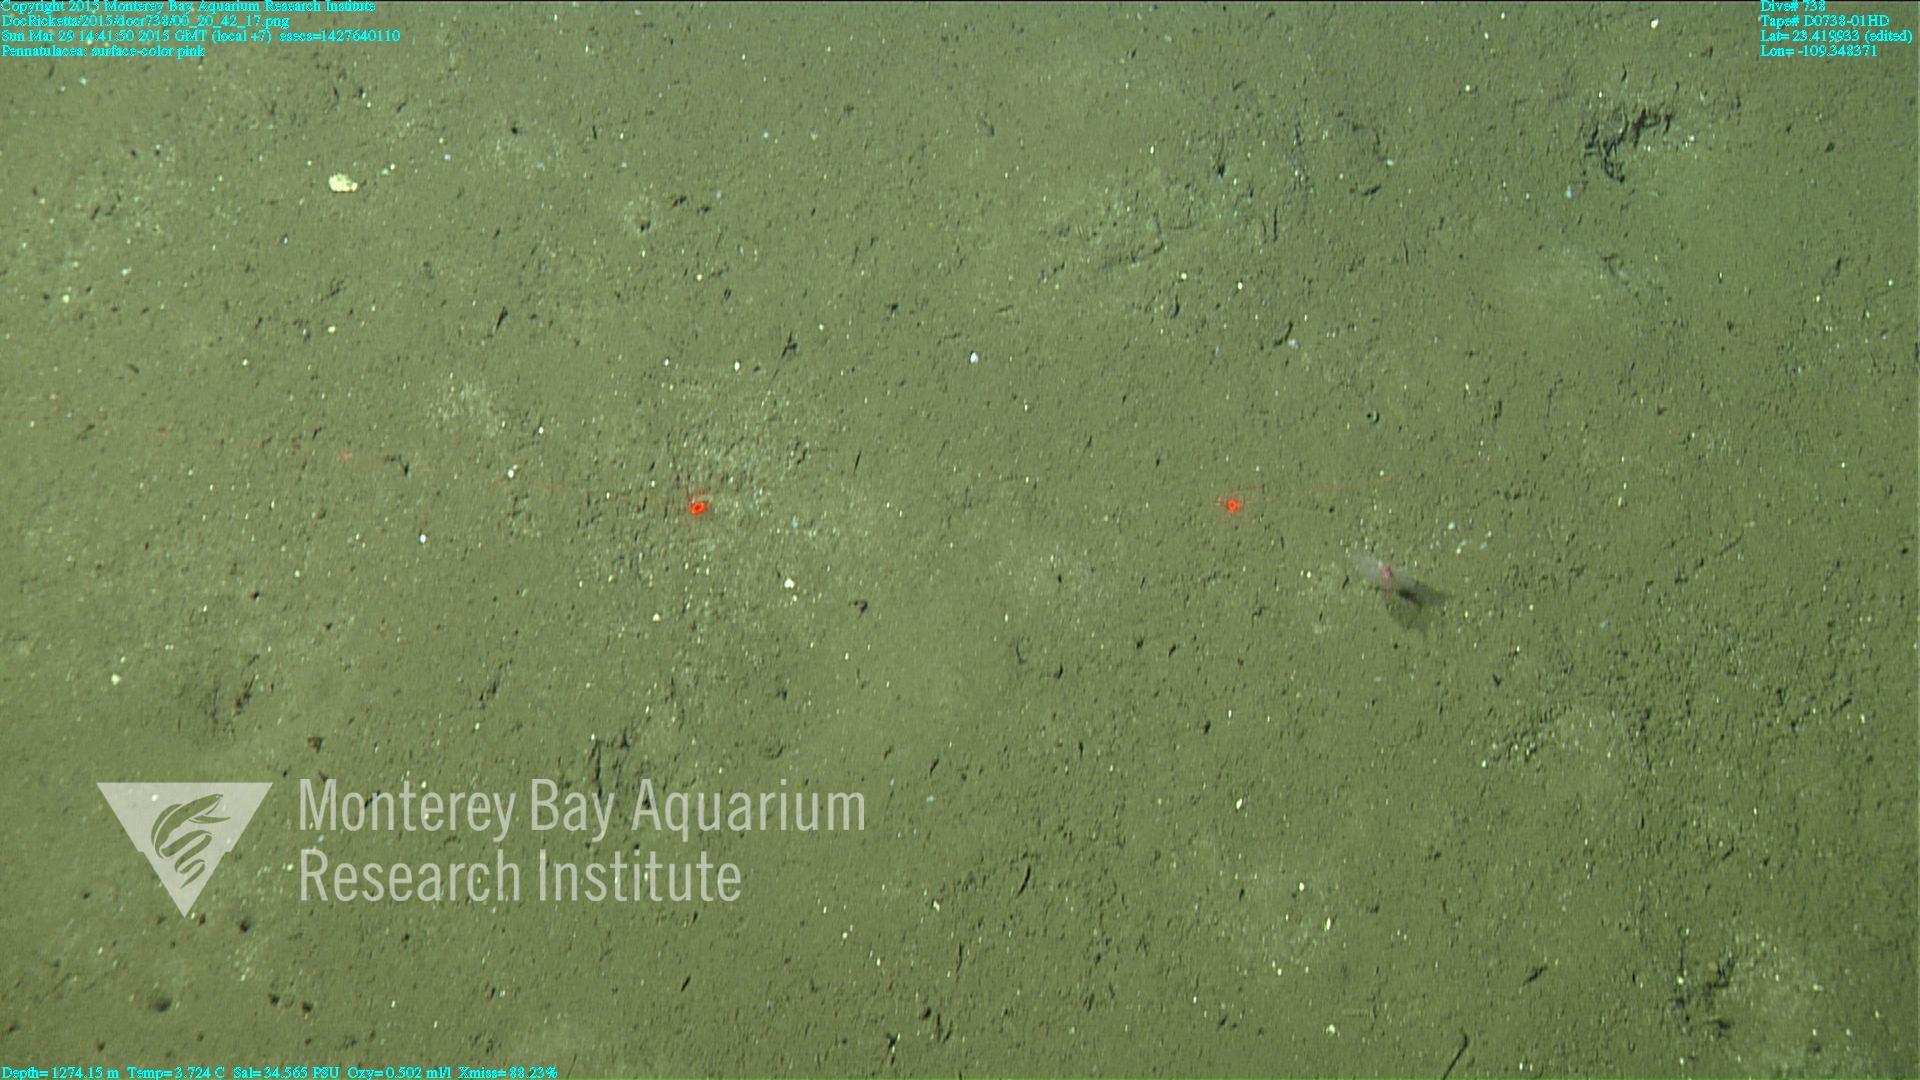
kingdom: Animalia
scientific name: Animalia
